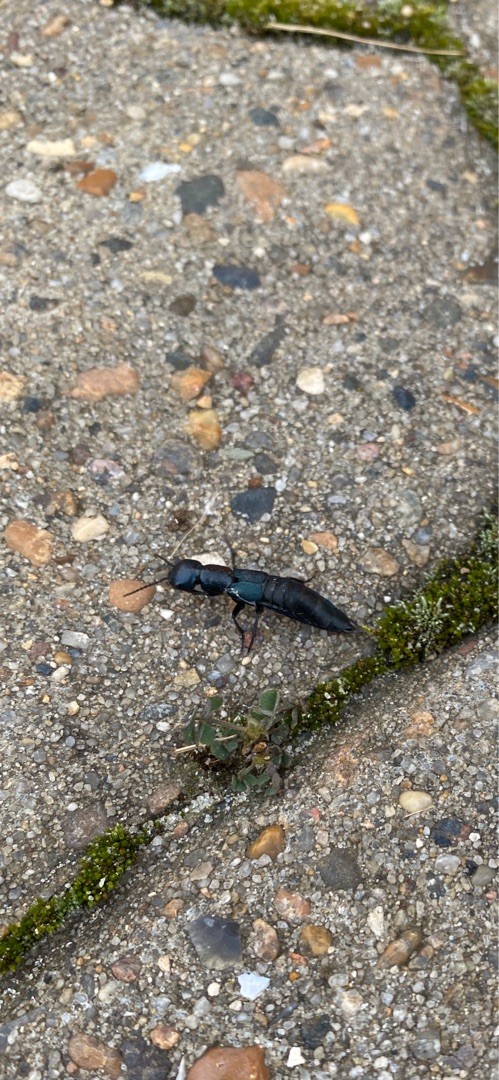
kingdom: Animalia
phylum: Arthropoda
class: Insecta
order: Coleoptera
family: Staphylinidae
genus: Ocypus
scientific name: Ocypus ophthalmicus
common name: Blå kæmperovbille
